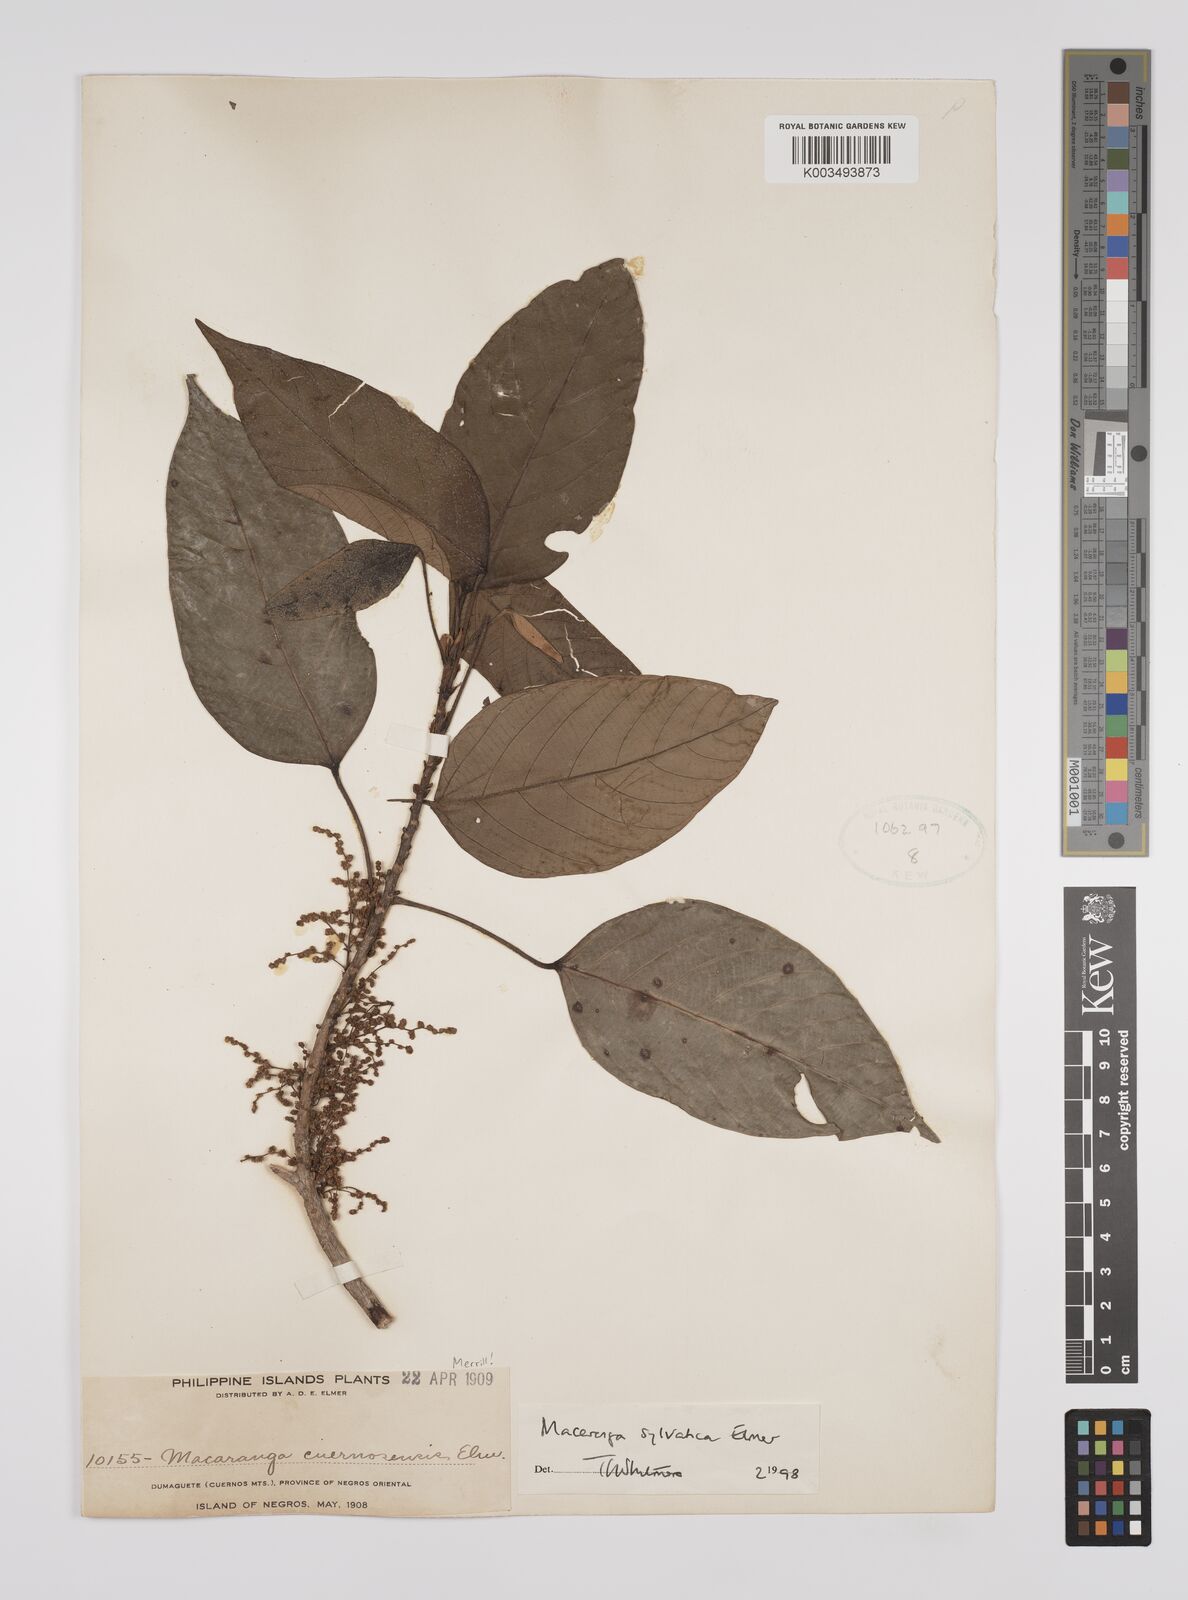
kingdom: Plantae
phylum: Tracheophyta
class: Magnoliopsida
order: Malpighiales
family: Euphorbiaceae
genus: Macaranga
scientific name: Macaranga sylvatica
